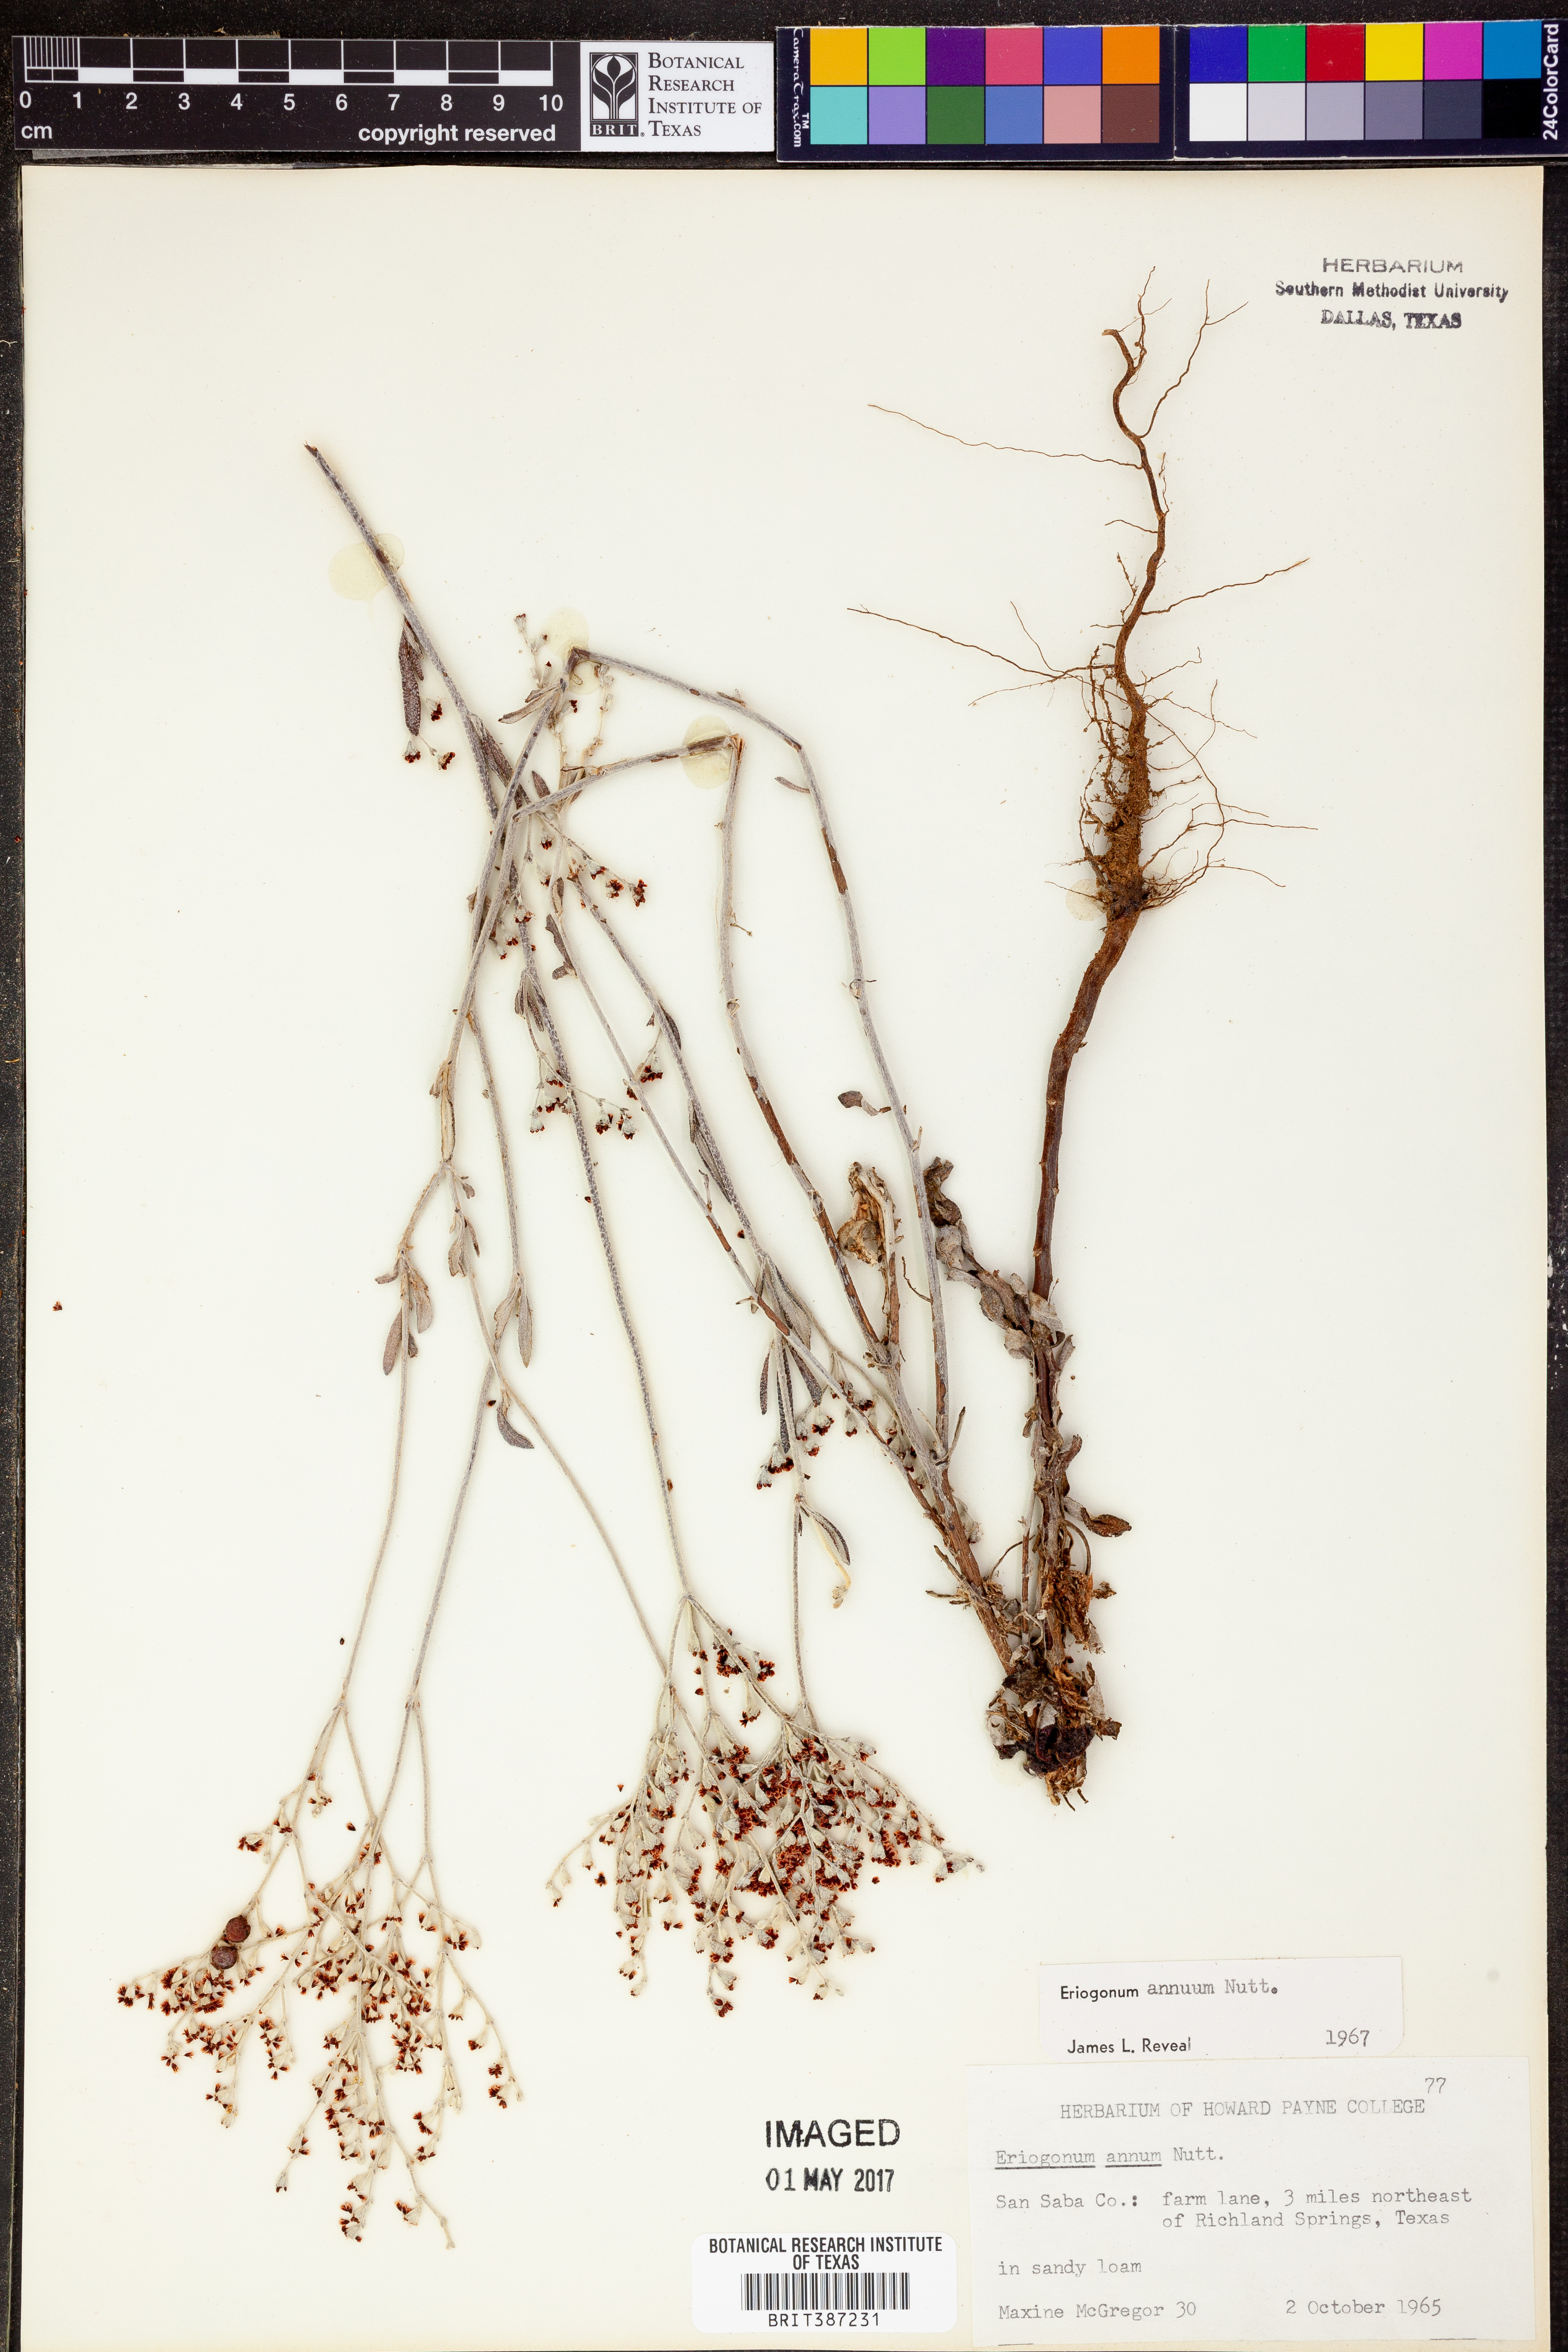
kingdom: Plantae
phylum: Tracheophyta
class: Magnoliopsida
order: Caryophyllales
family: Polygonaceae
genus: Eriogonum
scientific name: Eriogonum annuum
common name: Annual wild buckwheat
